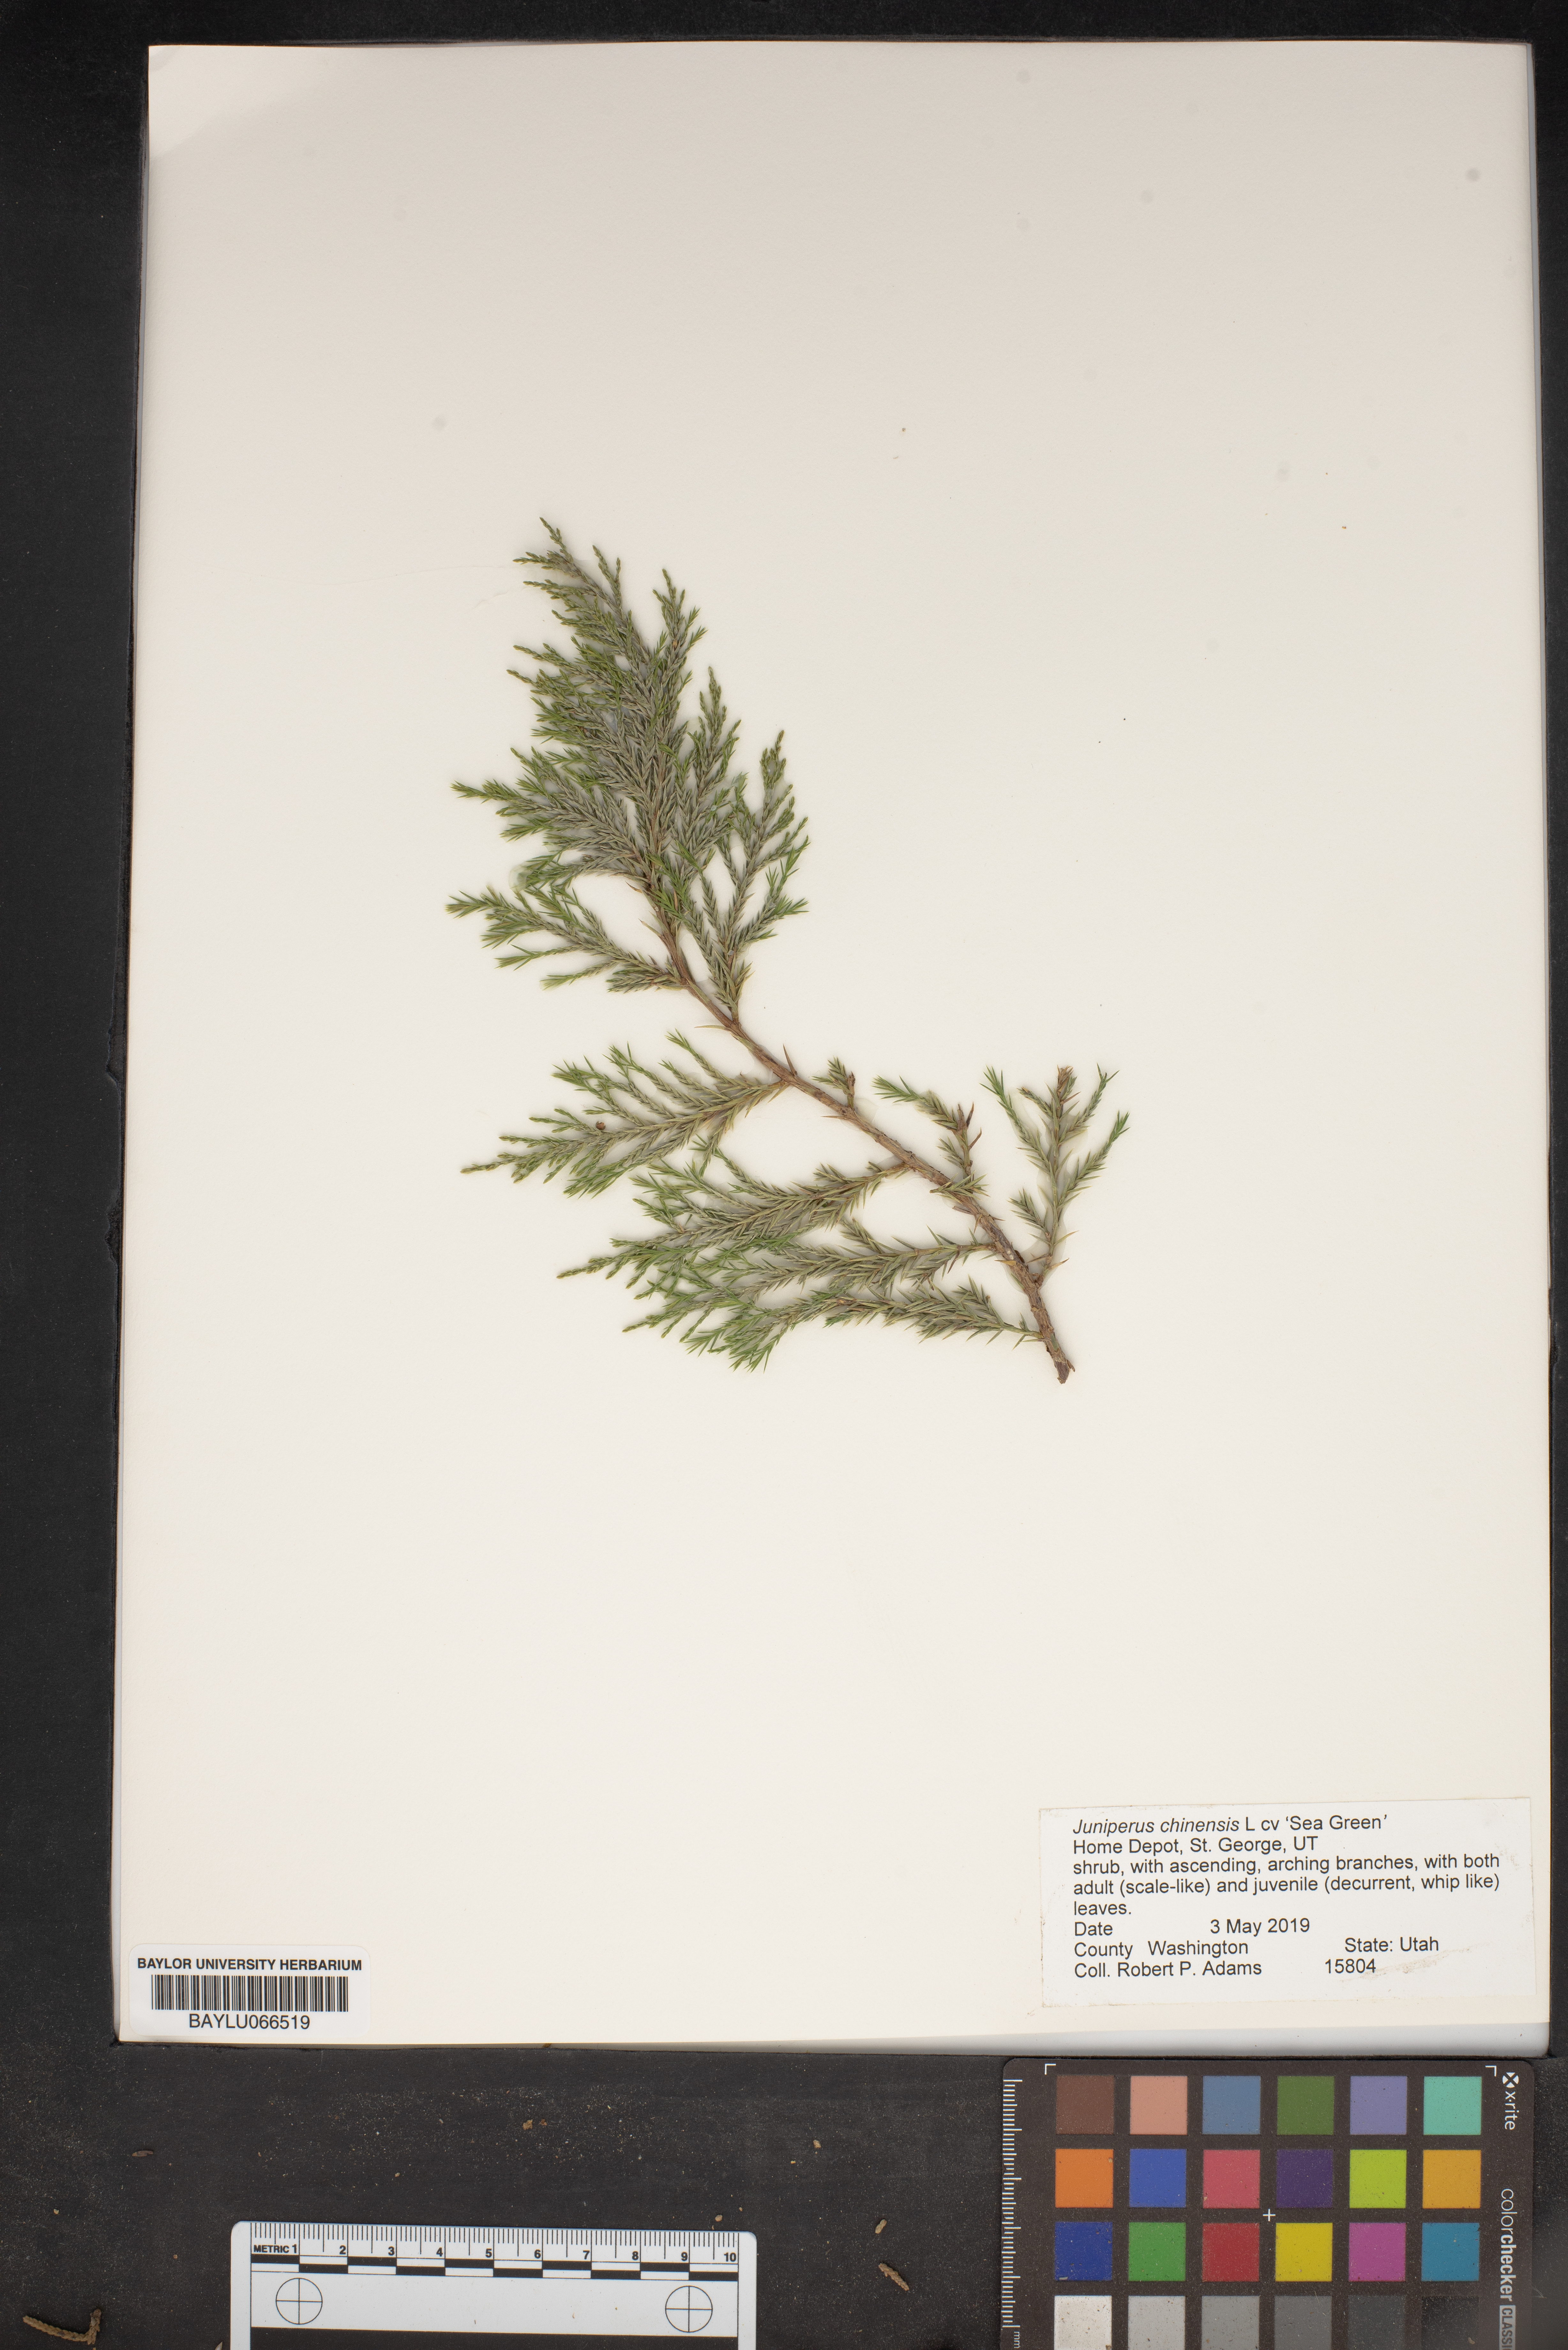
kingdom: Plantae
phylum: Tracheophyta
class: Pinopsida
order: Pinales
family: Cupressaceae
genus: Juniperus
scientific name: Juniperus chinensis
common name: Chinese juniper
